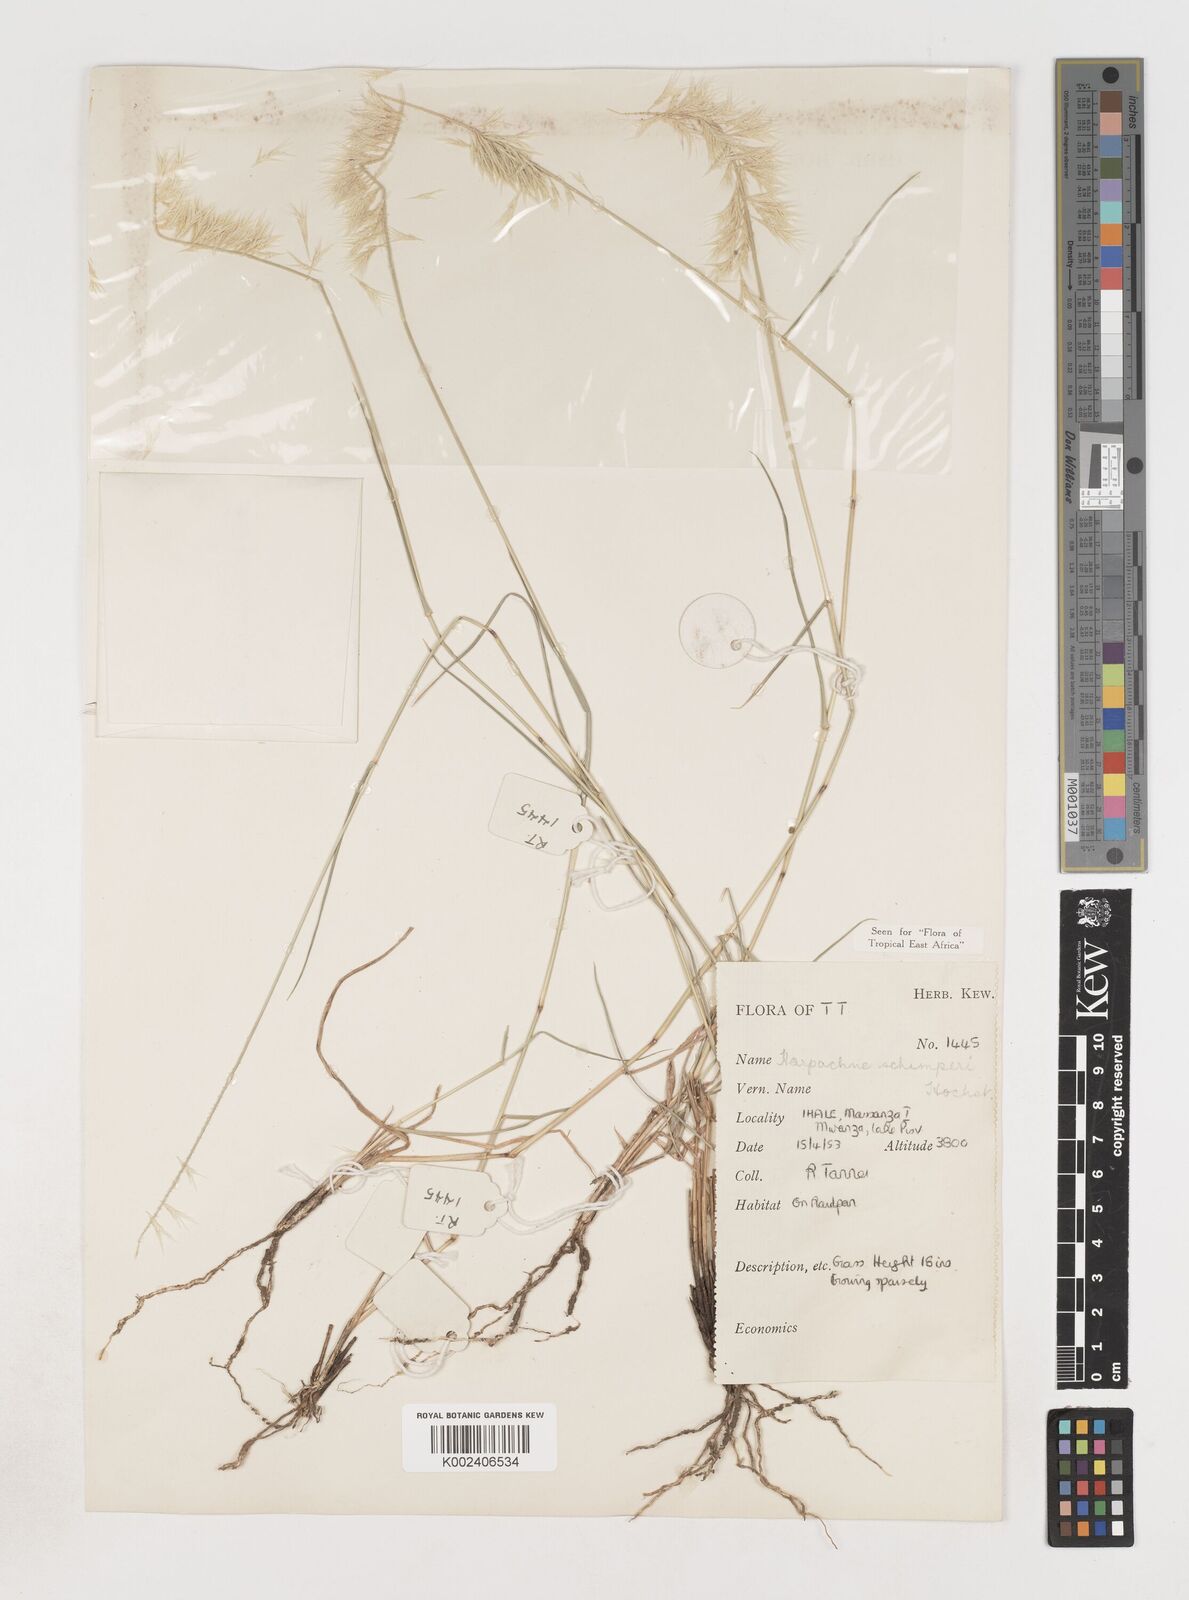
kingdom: Plantae
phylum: Tracheophyta
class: Liliopsida
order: Poales
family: Poaceae
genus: Harpachne
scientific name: Harpachne schimperi
